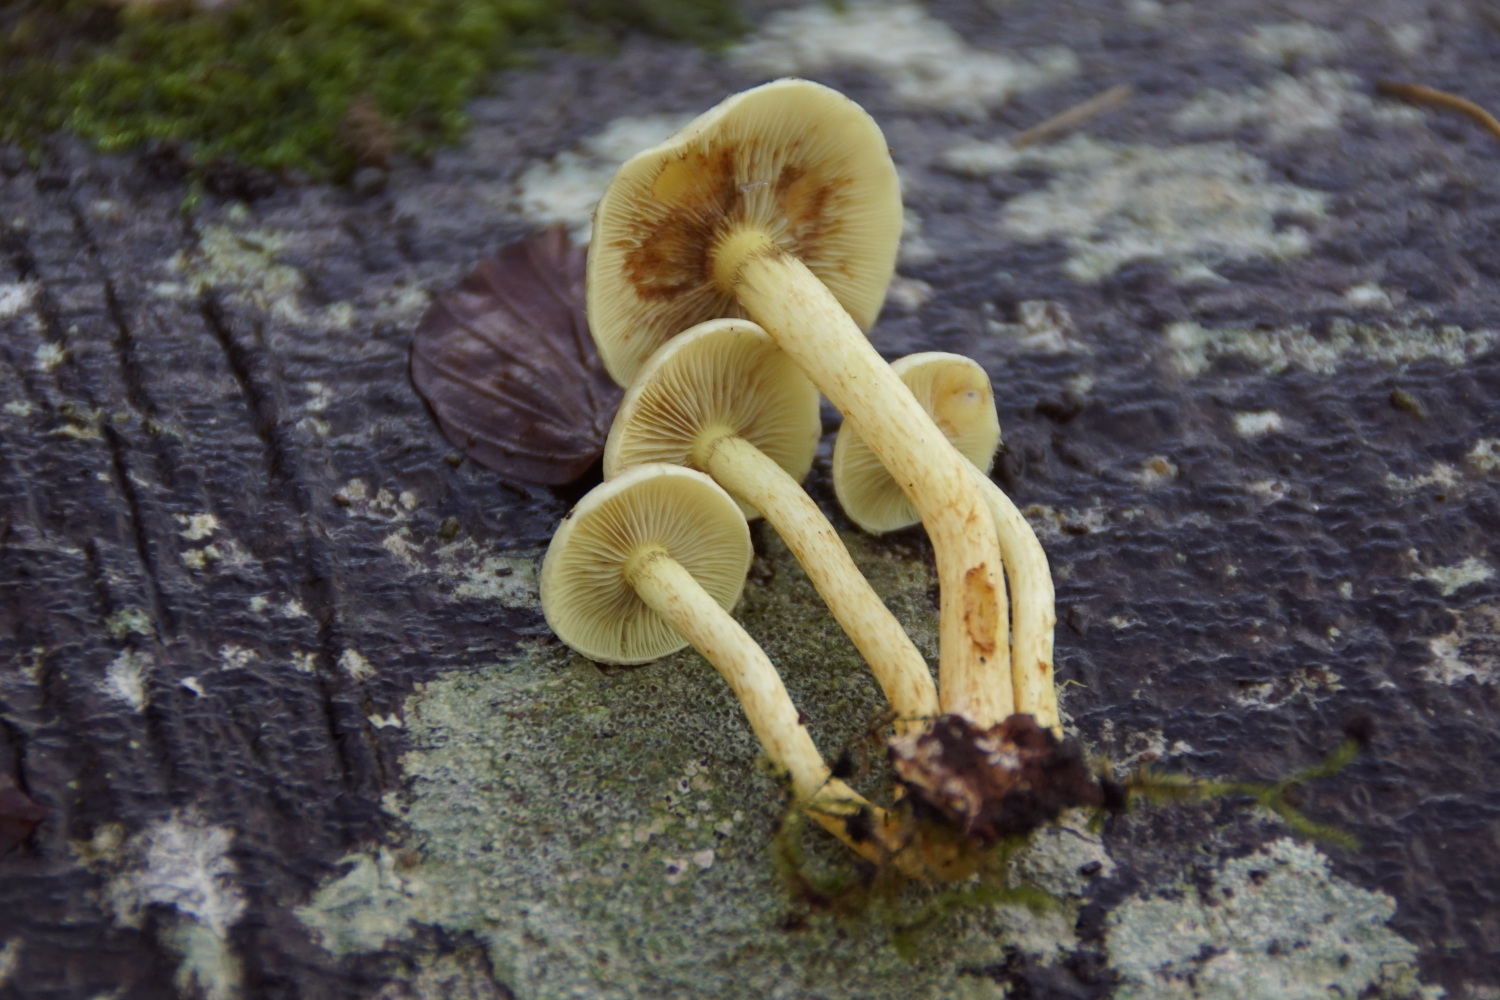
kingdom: Fungi
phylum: Basidiomycota
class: Agaricomycetes
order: Agaricales
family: Strophariaceae
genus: Hypholoma
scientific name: Hypholoma fasciculare
